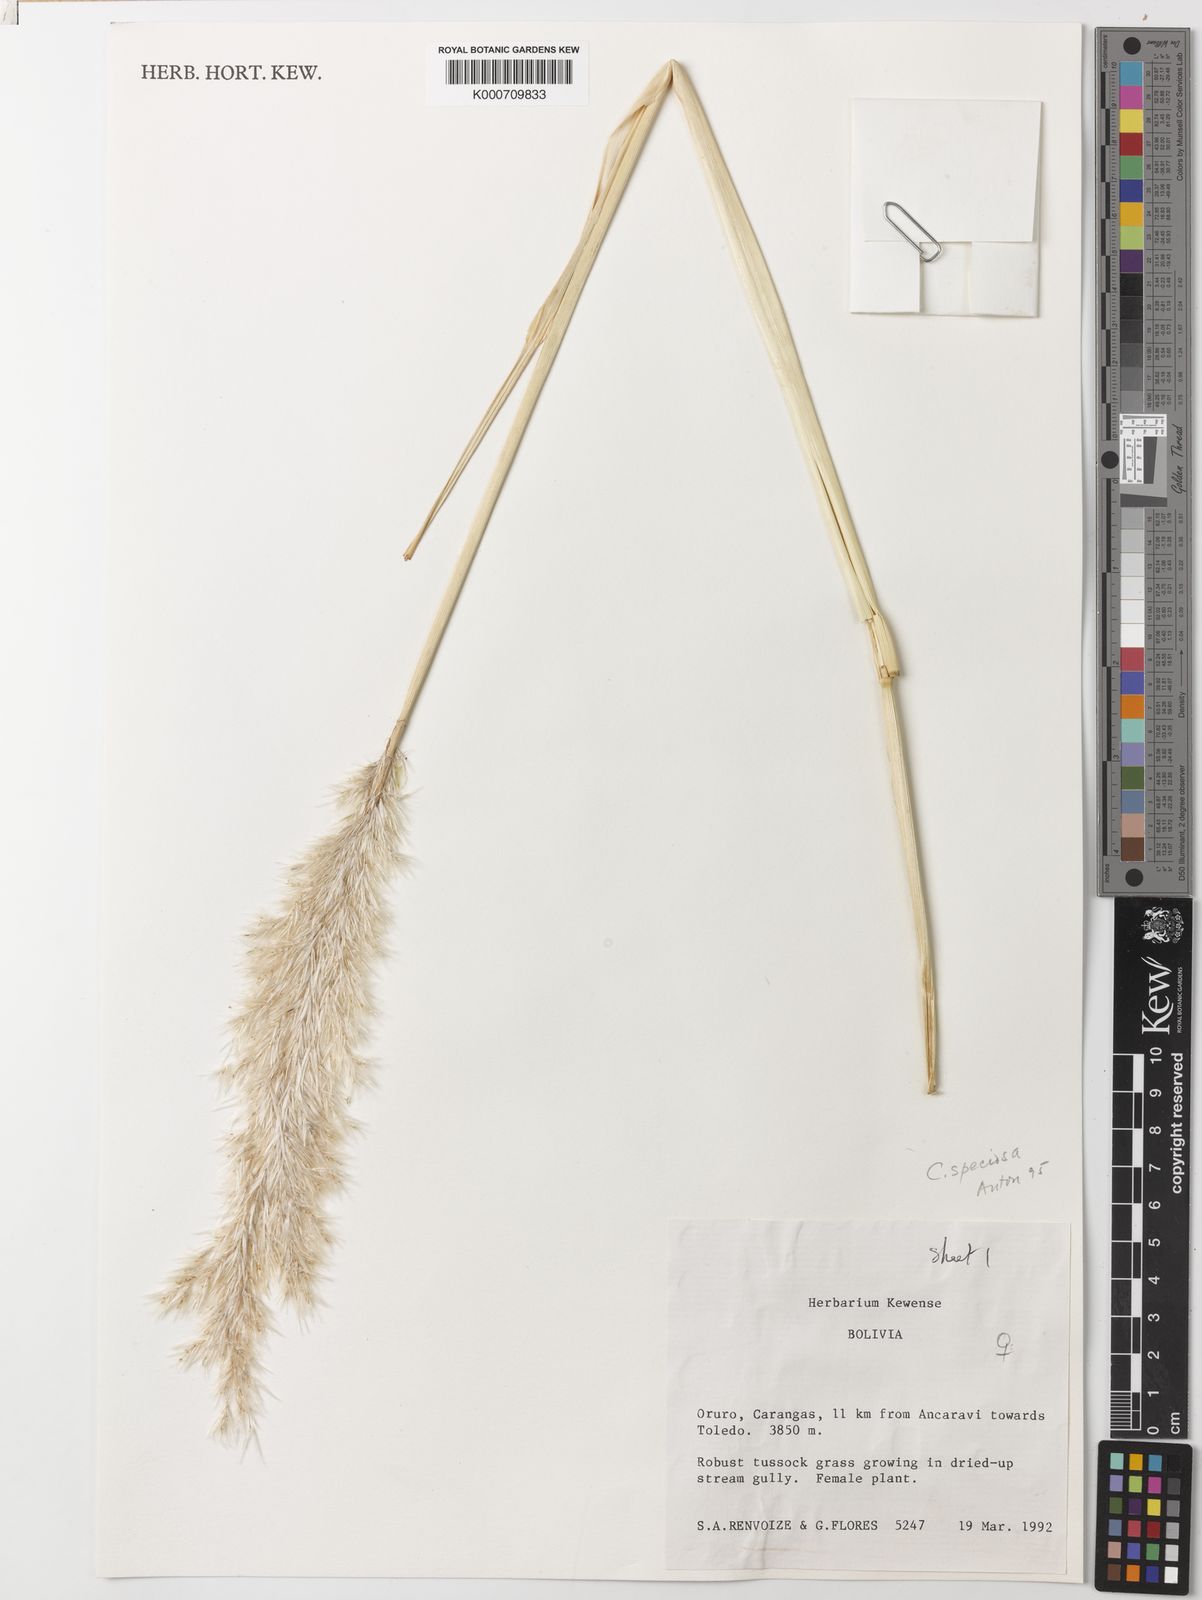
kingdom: Plantae
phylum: Tracheophyta
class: Liliopsida
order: Poales
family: Poaceae
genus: Cortaderia
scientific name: Cortaderia speciosa
